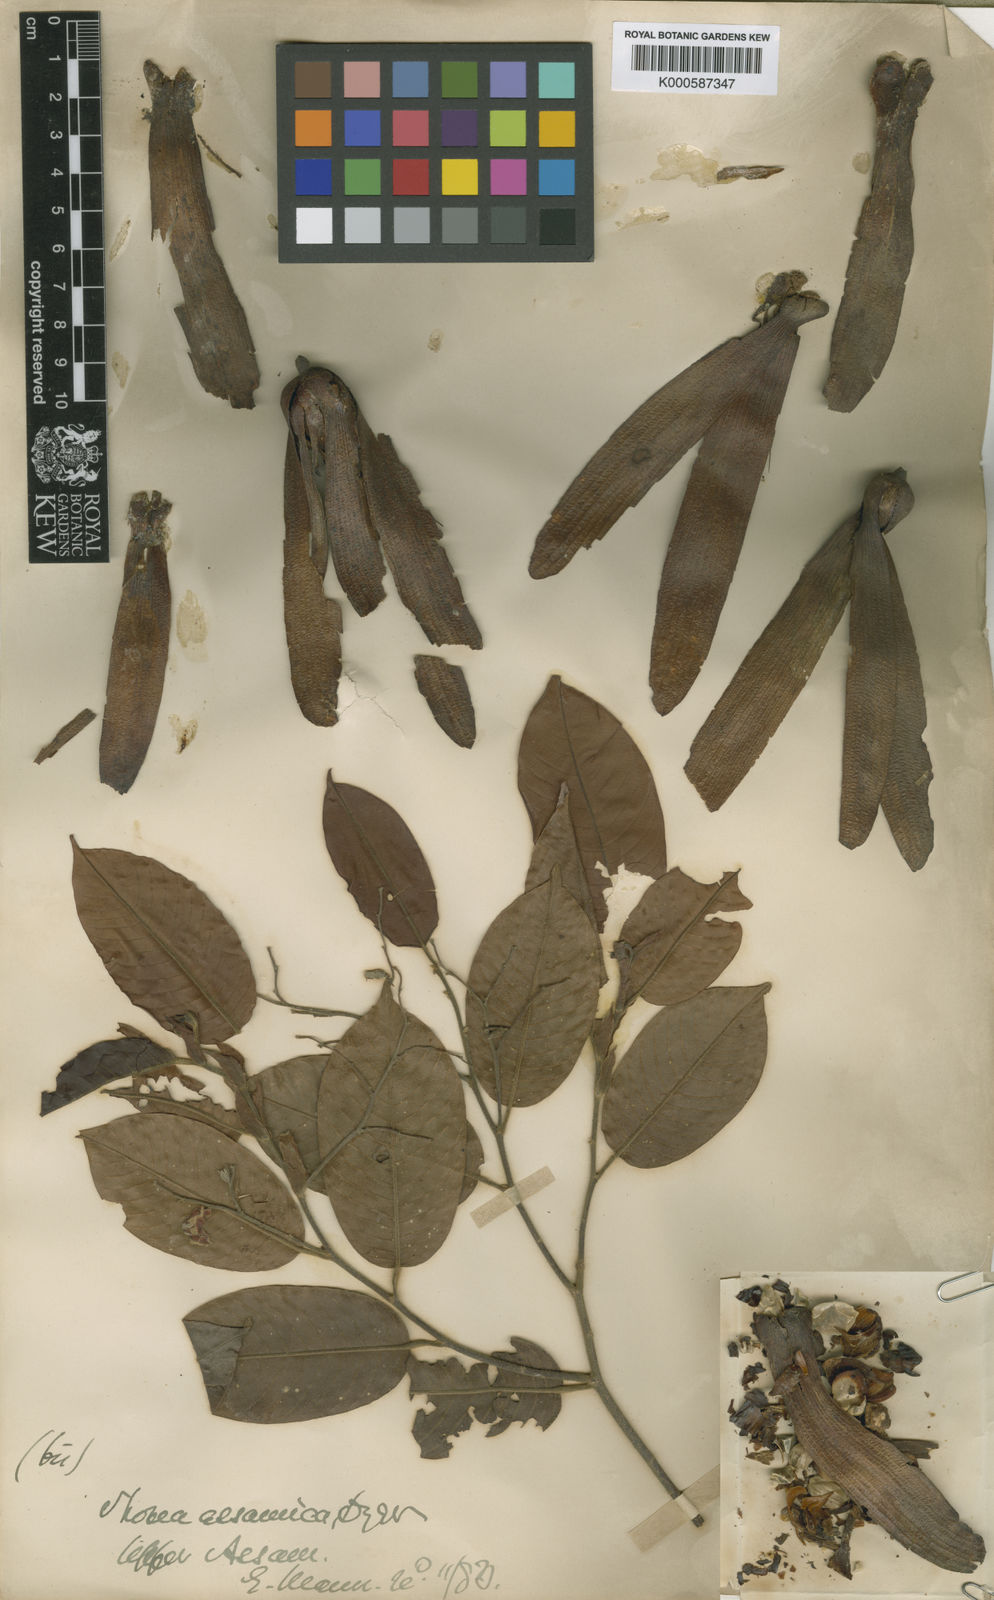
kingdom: Plantae
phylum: Tracheophyta
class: Magnoliopsida
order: Malvales
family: Dipterocarpaceae
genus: Anthoshorea
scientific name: Anthoshorea assamica
